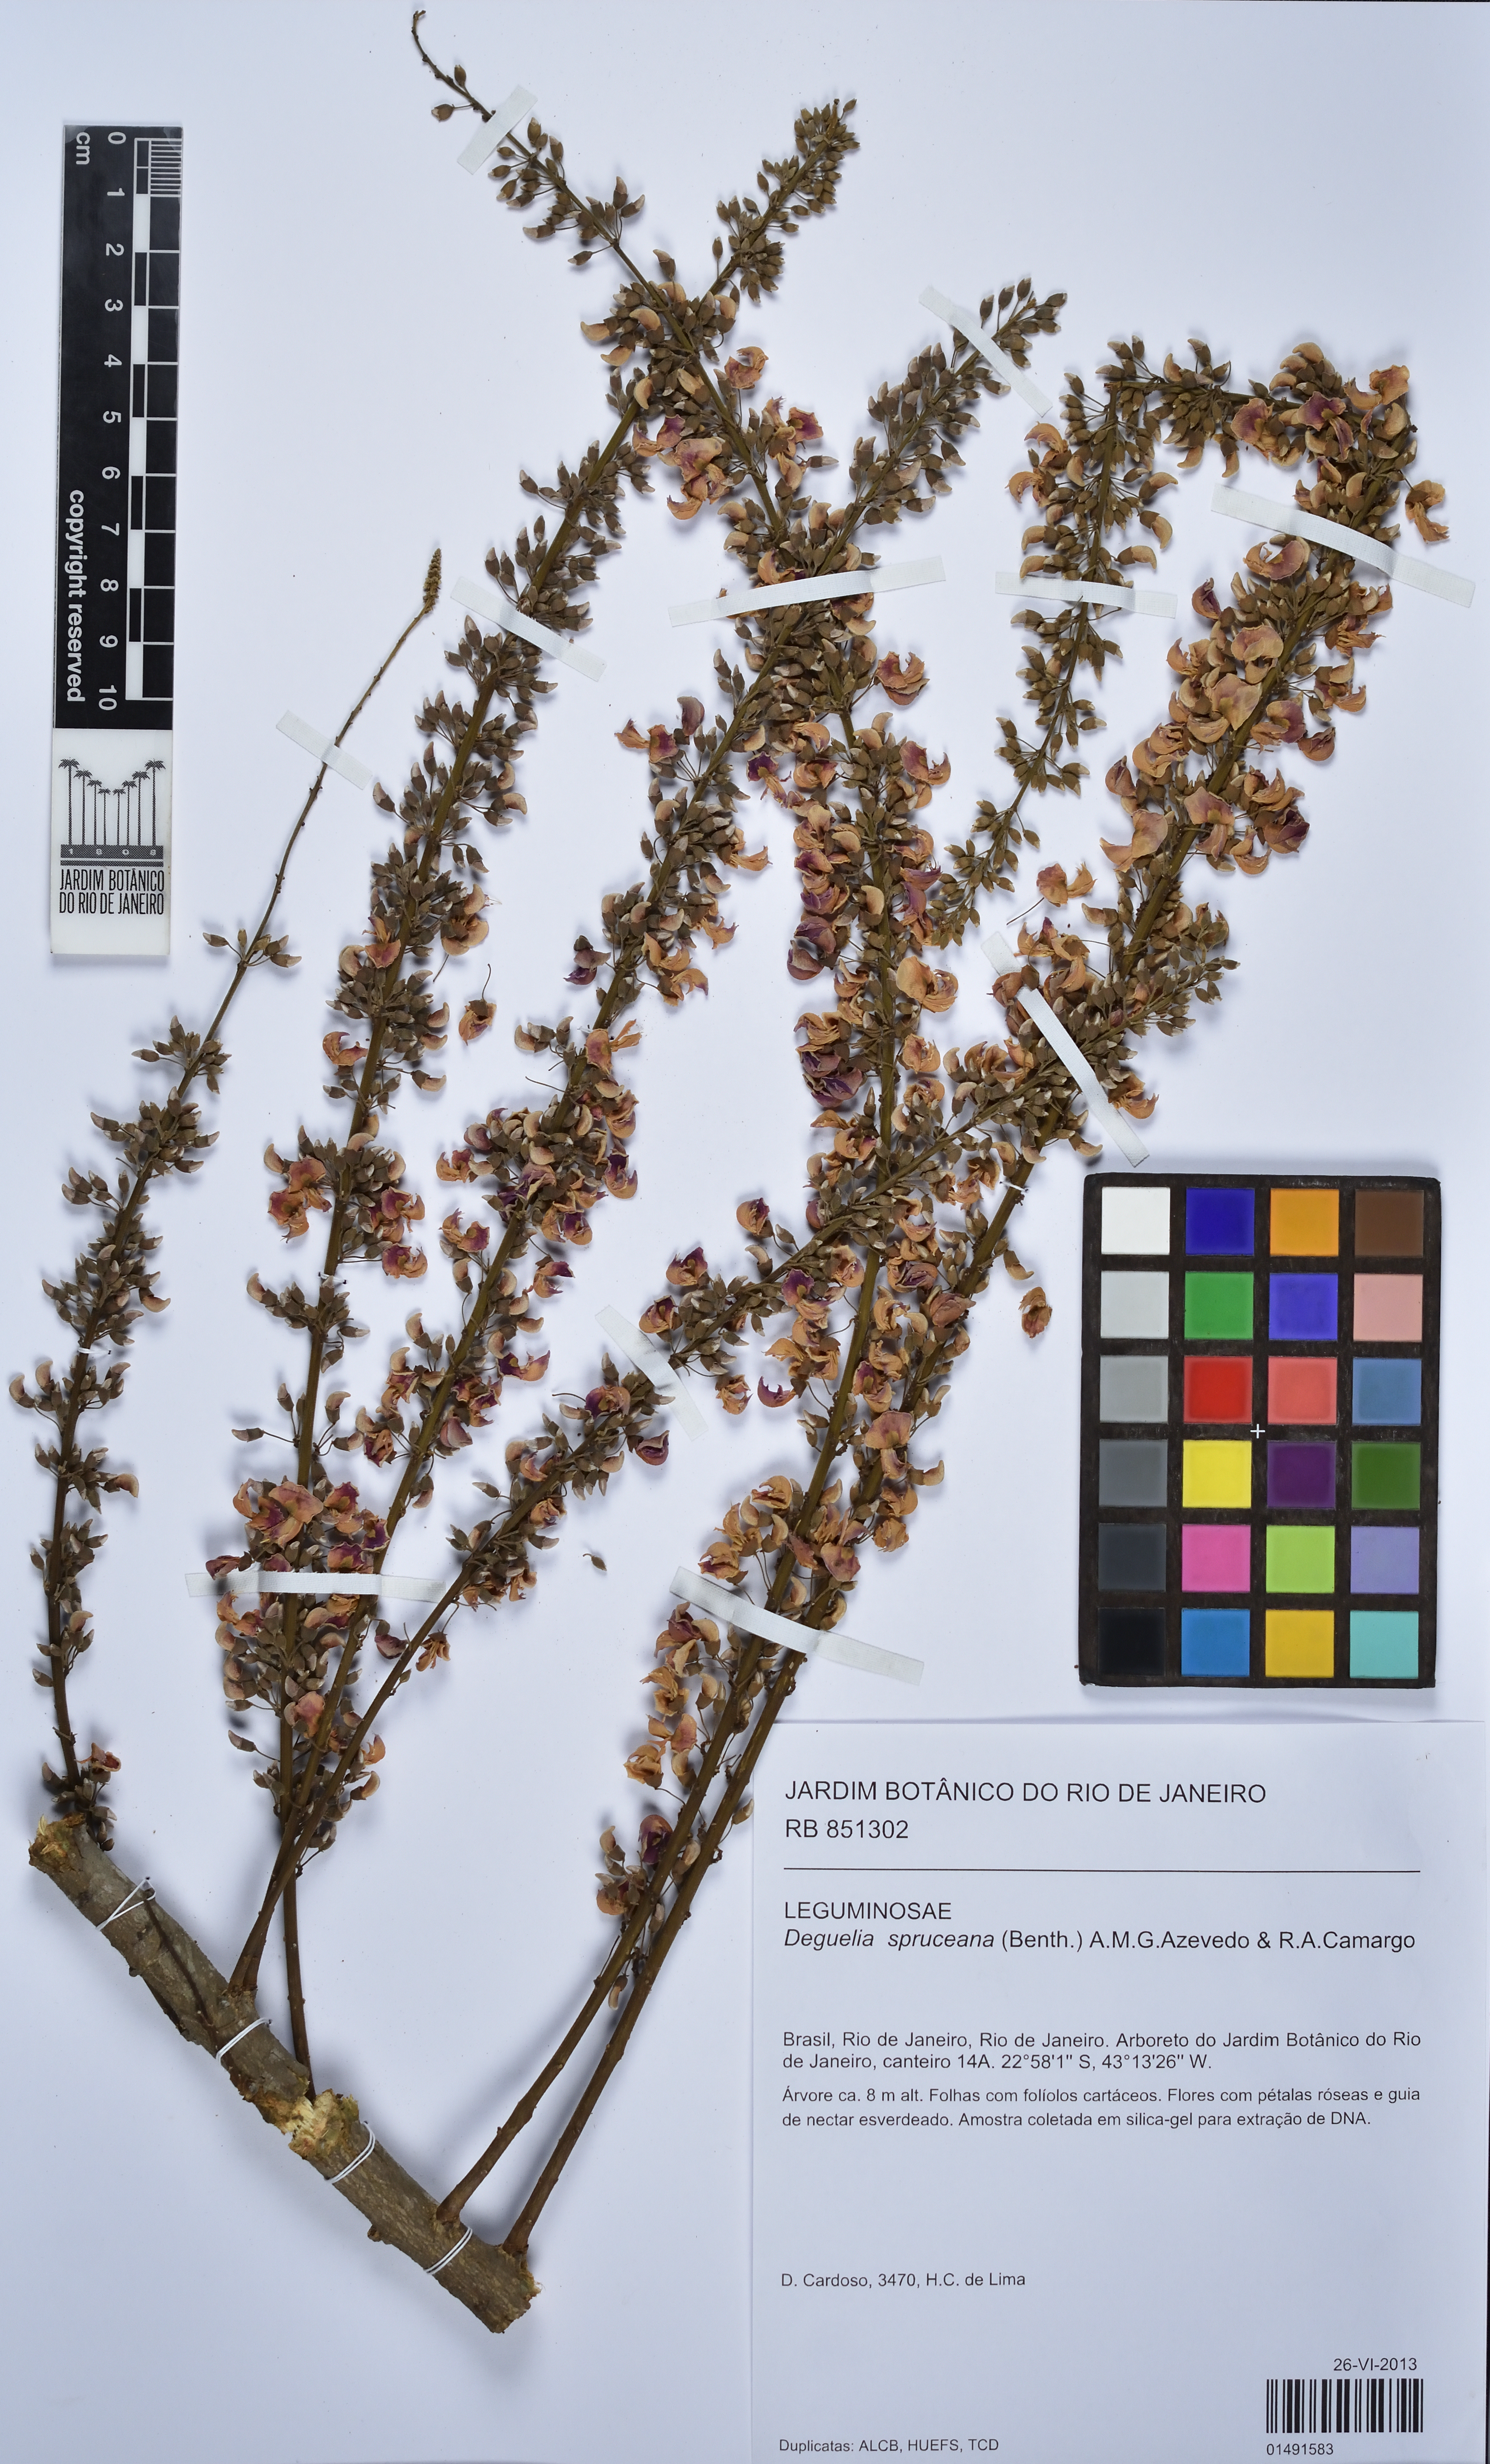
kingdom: Plantae
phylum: Tracheophyta
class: Magnoliopsida
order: Fabales
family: Fabaceae
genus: Deguelia
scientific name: Deguelia spruceana
